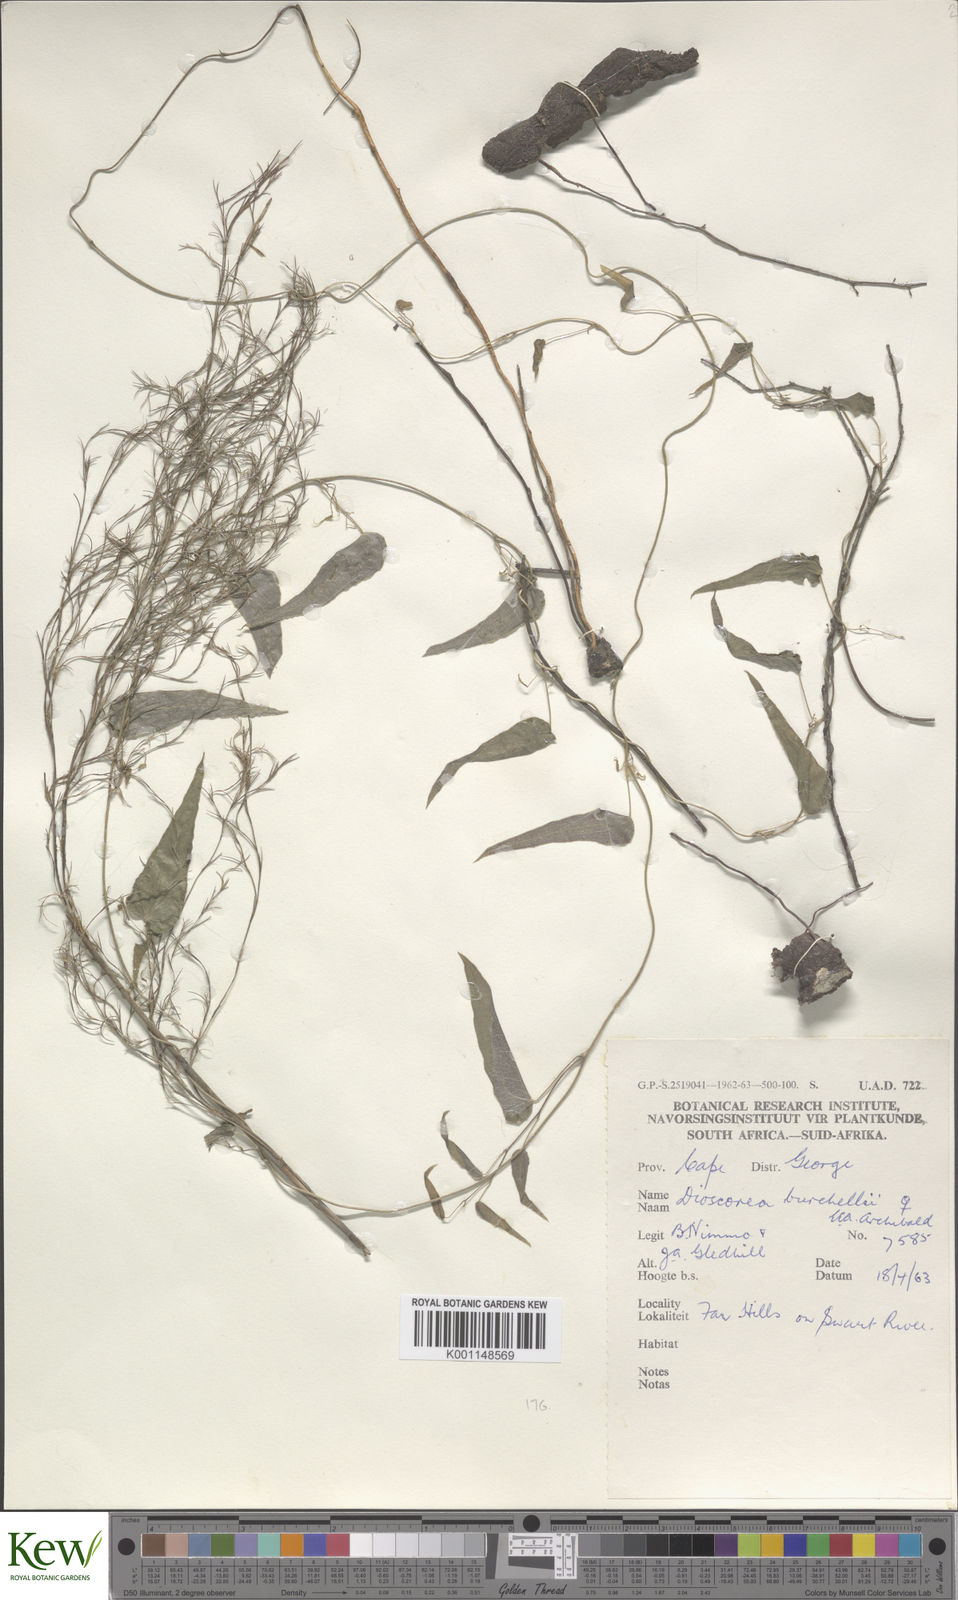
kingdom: Plantae
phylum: Tracheophyta
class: Liliopsida
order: Dioscoreales
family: Dioscoreaceae
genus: Dioscorea
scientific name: Dioscorea burchellii
